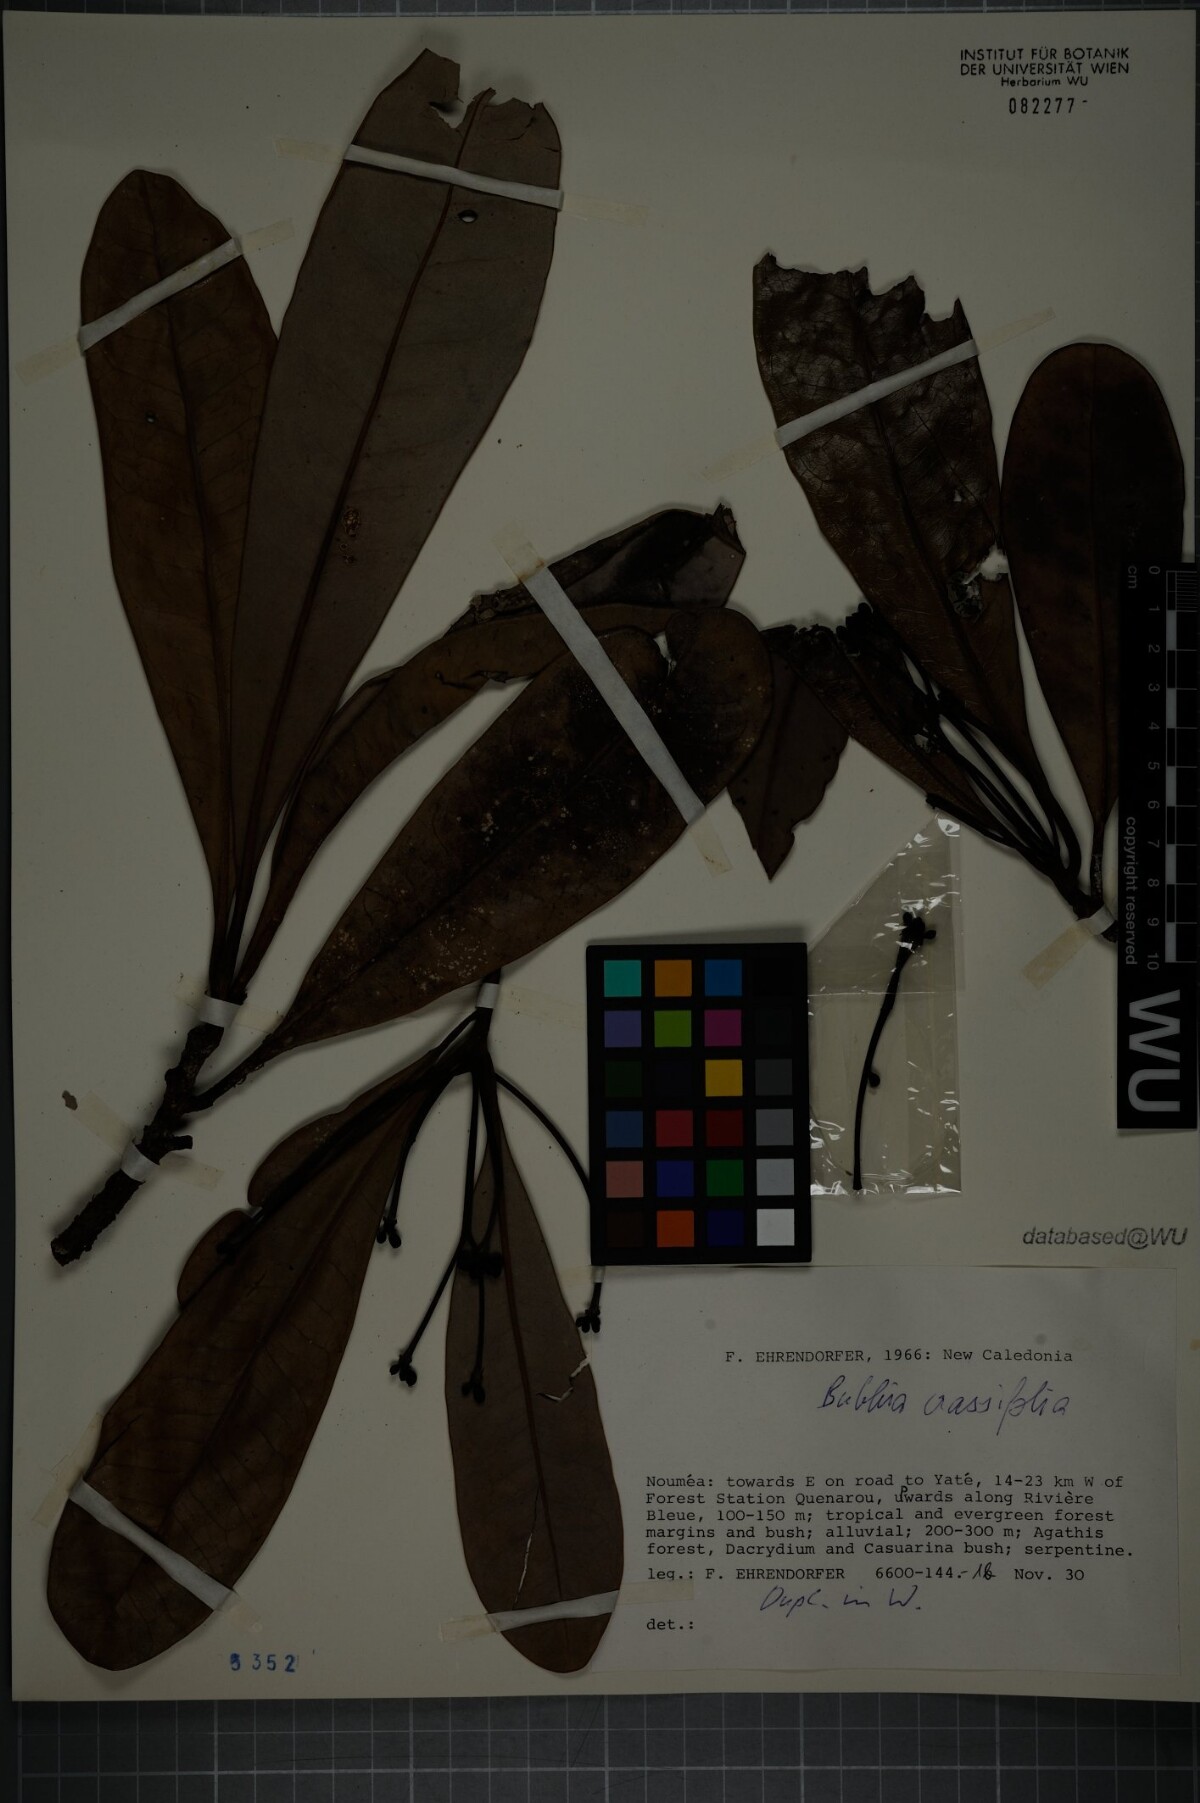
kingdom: Plantae
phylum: Tracheophyta
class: Magnoliopsida
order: Canellales
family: Winteraceae
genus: Zygogynum
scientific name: Zygogynum crassifolium
